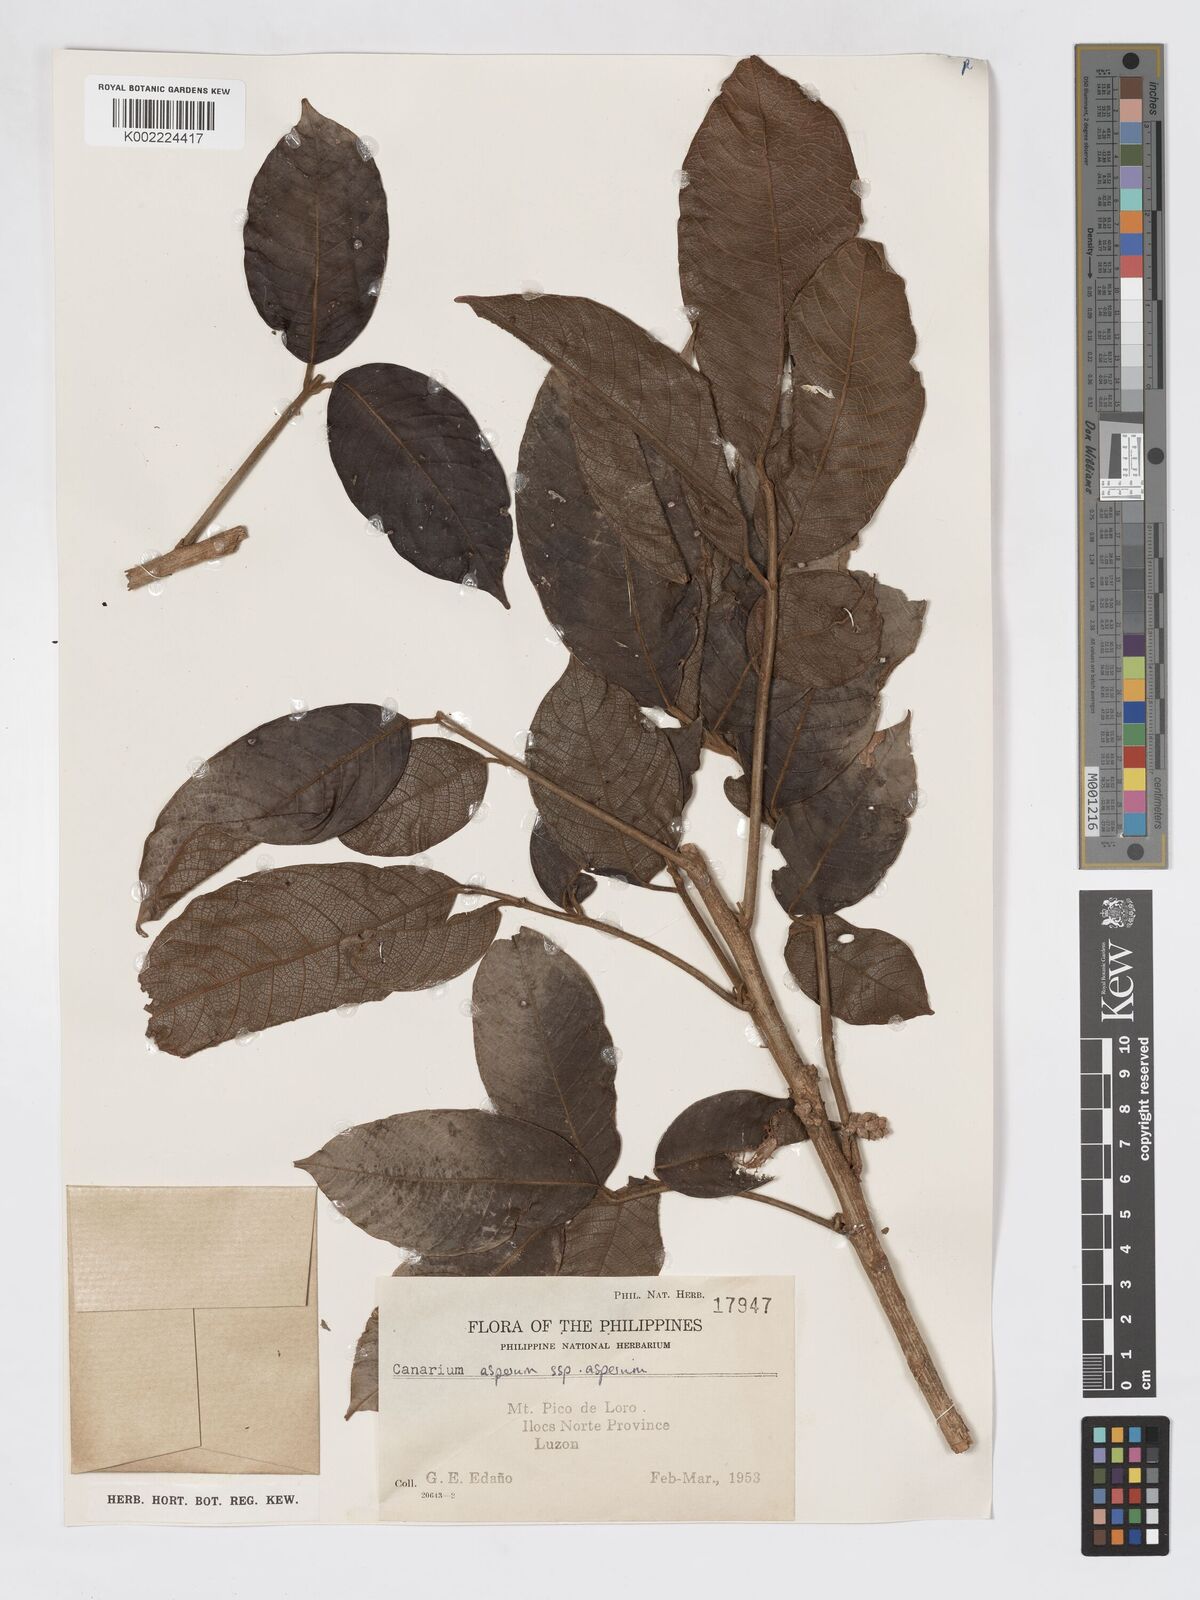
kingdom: Plantae
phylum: Tracheophyta
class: Magnoliopsida
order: Sapindales
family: Burseraceae
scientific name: Burseraceae
